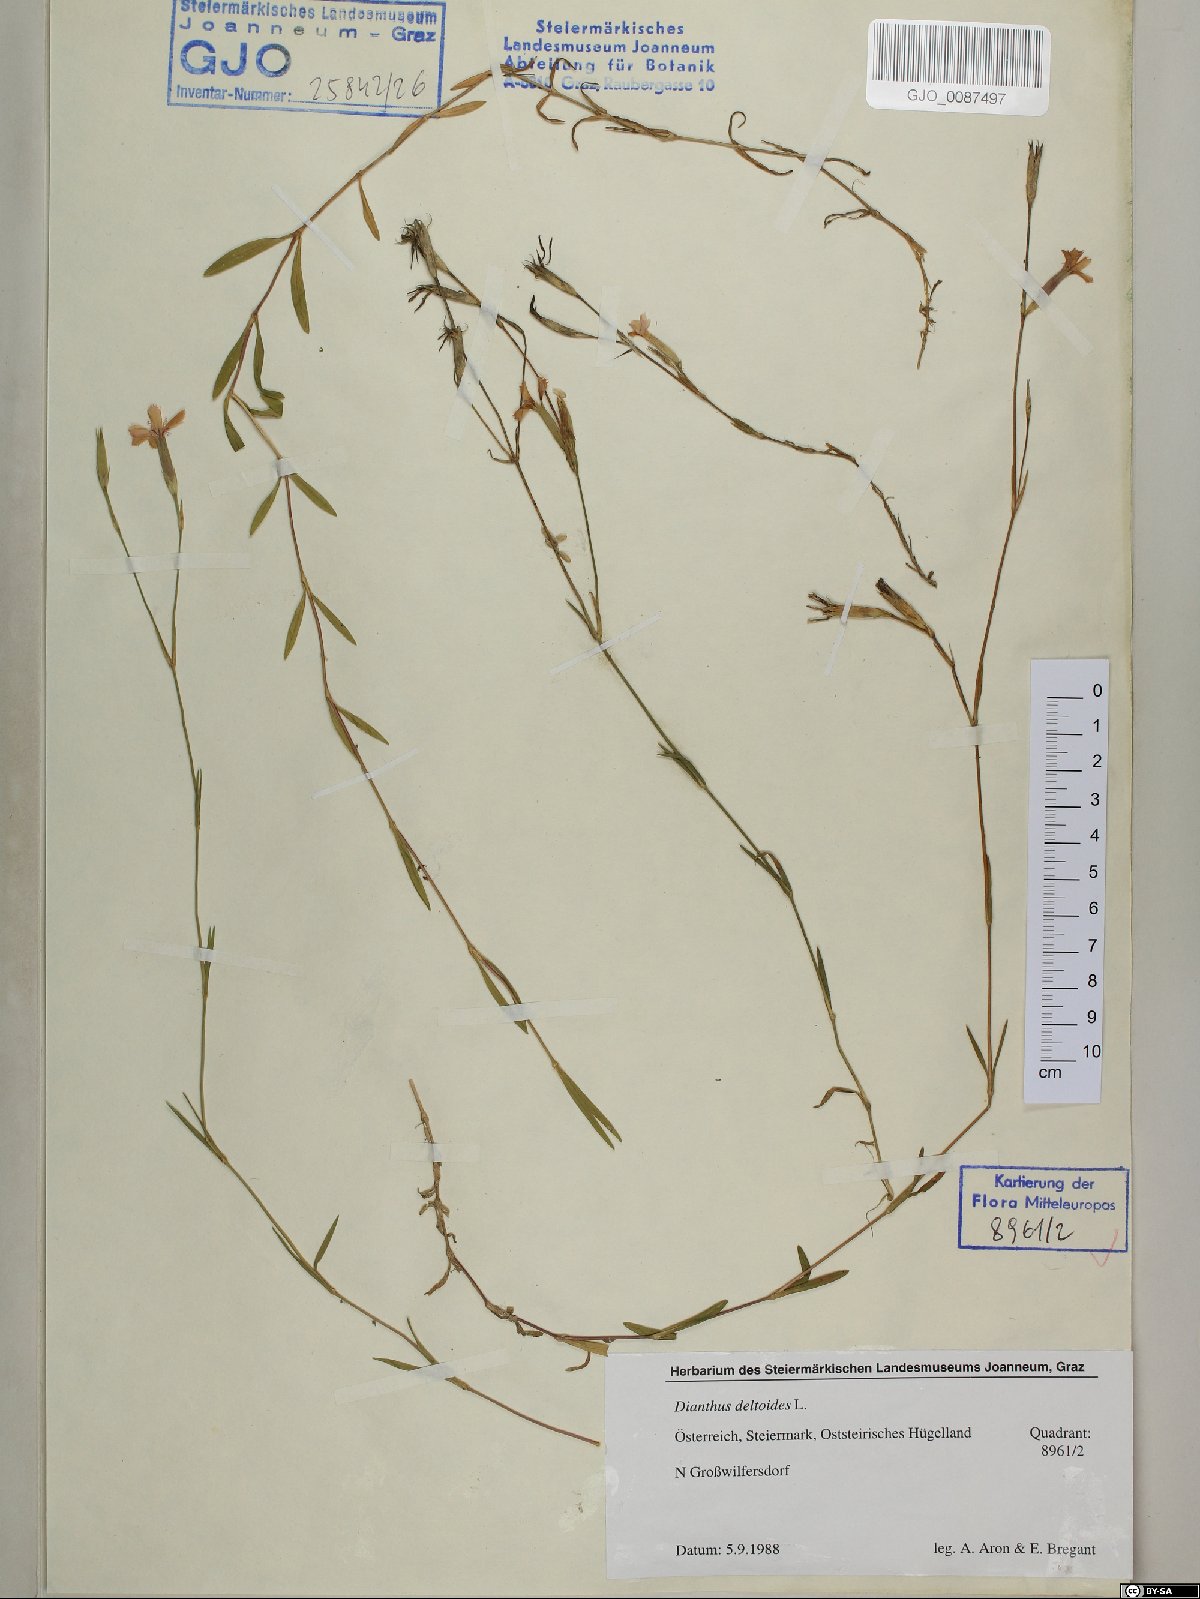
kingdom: Plantae
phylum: Tracheophyta
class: Magnoliopsida
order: Caryophyllales
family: Caryophyllaceae
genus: Dianthus
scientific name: Dianthus deltoides
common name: Maiden pink
